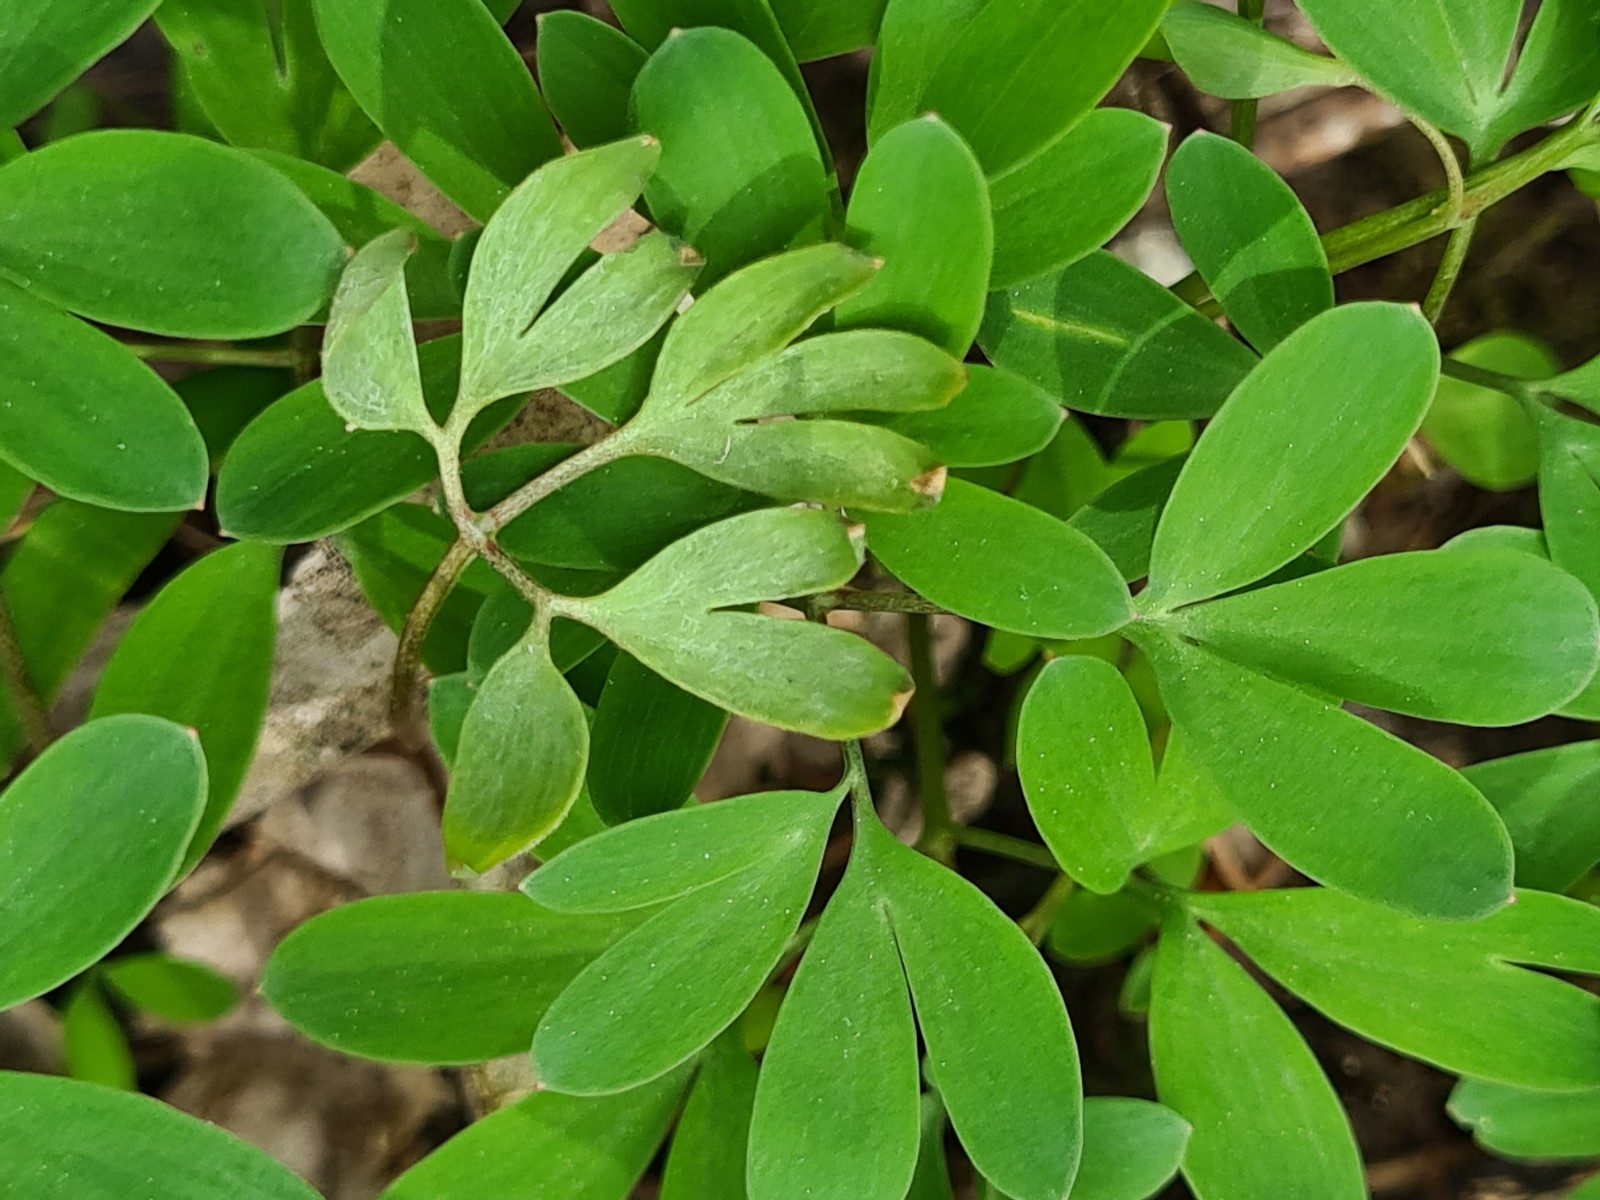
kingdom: Chromista
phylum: Oomycota
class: Peronosporea
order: Peronosporales
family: Peronosporaceae
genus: Peronospora
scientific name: Peronospora corydalis-intermediae
